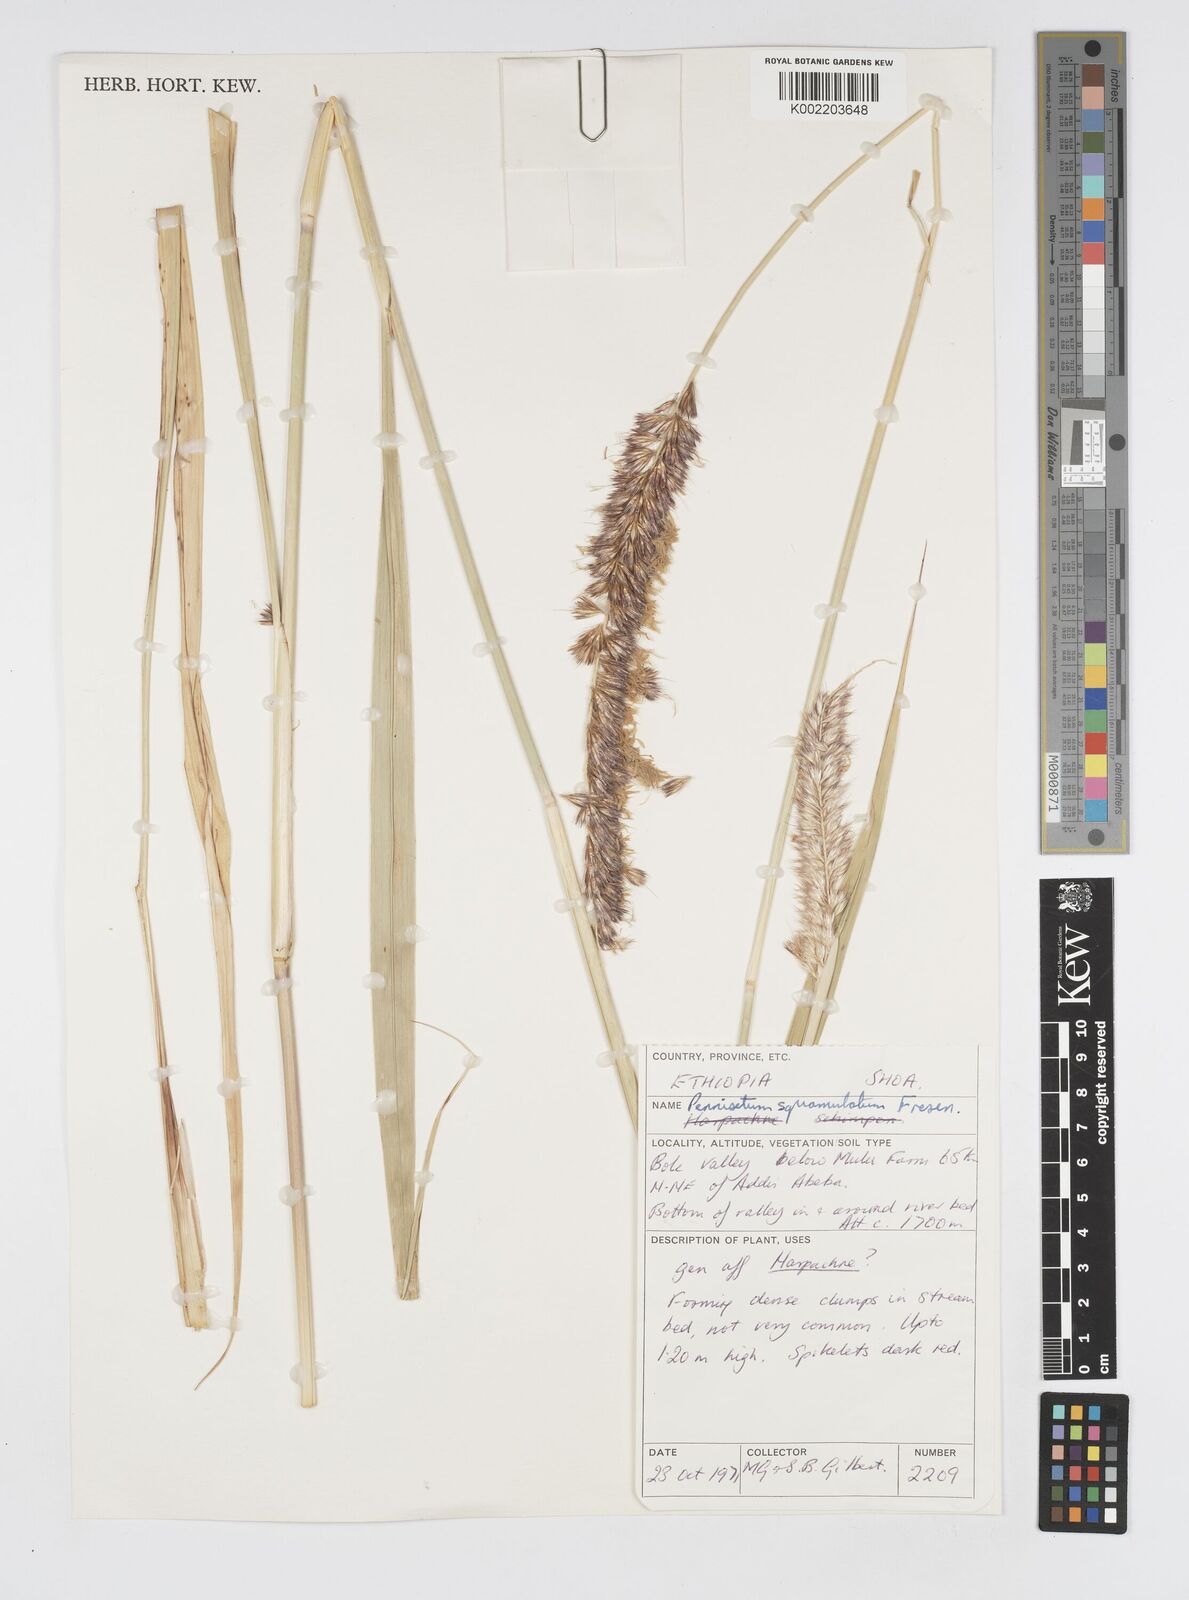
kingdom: Plantae
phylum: Tracheophyta
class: Liliopsida
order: Poales
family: Poaceae
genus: Cenchrus
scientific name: Cenchrus squamulatus
